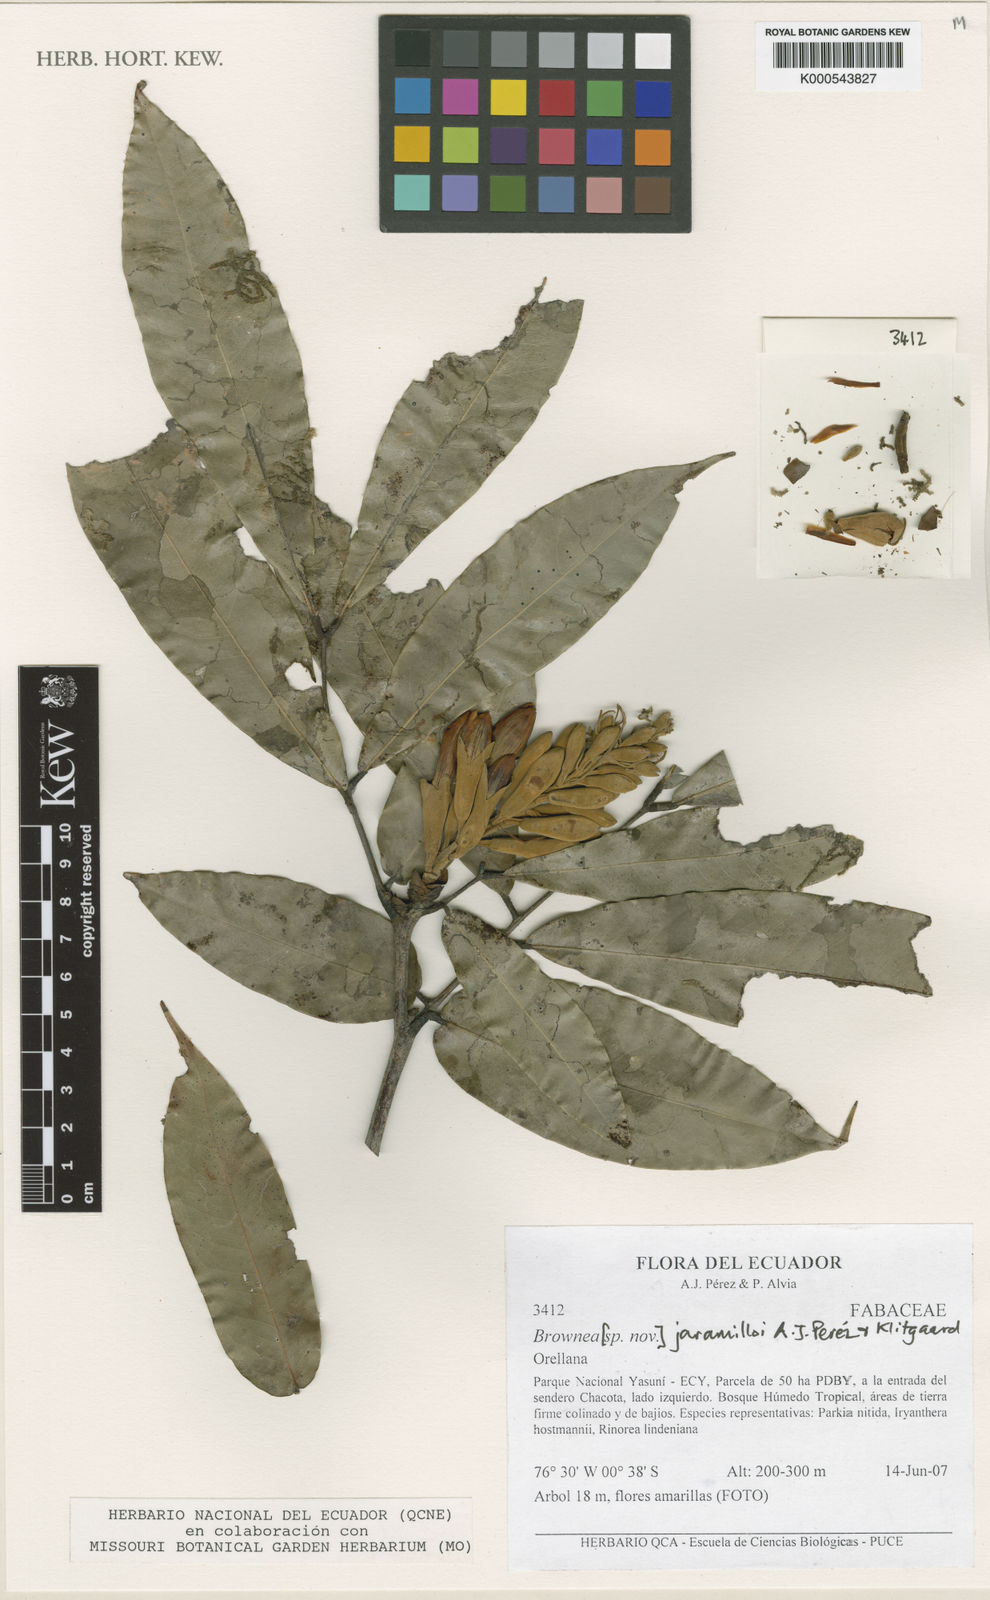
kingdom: Plantae
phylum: Tracheophyta
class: Magnoliopsida
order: Fabales
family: Fabaceae
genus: Brownea
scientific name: Brownea
